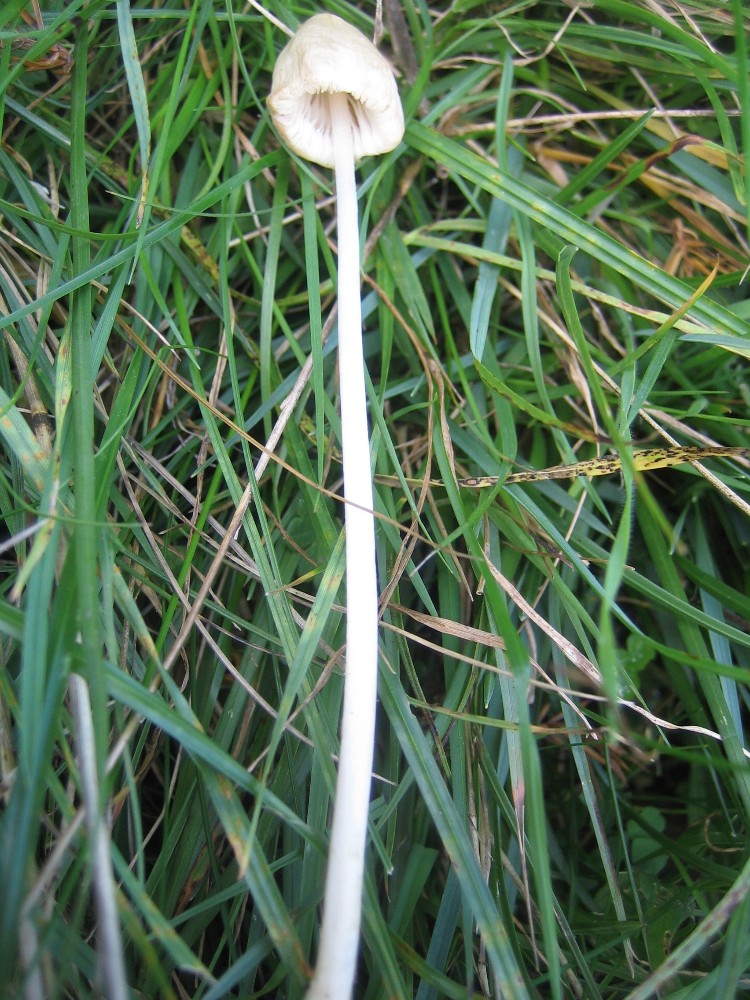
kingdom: Fungi
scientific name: Fungi
